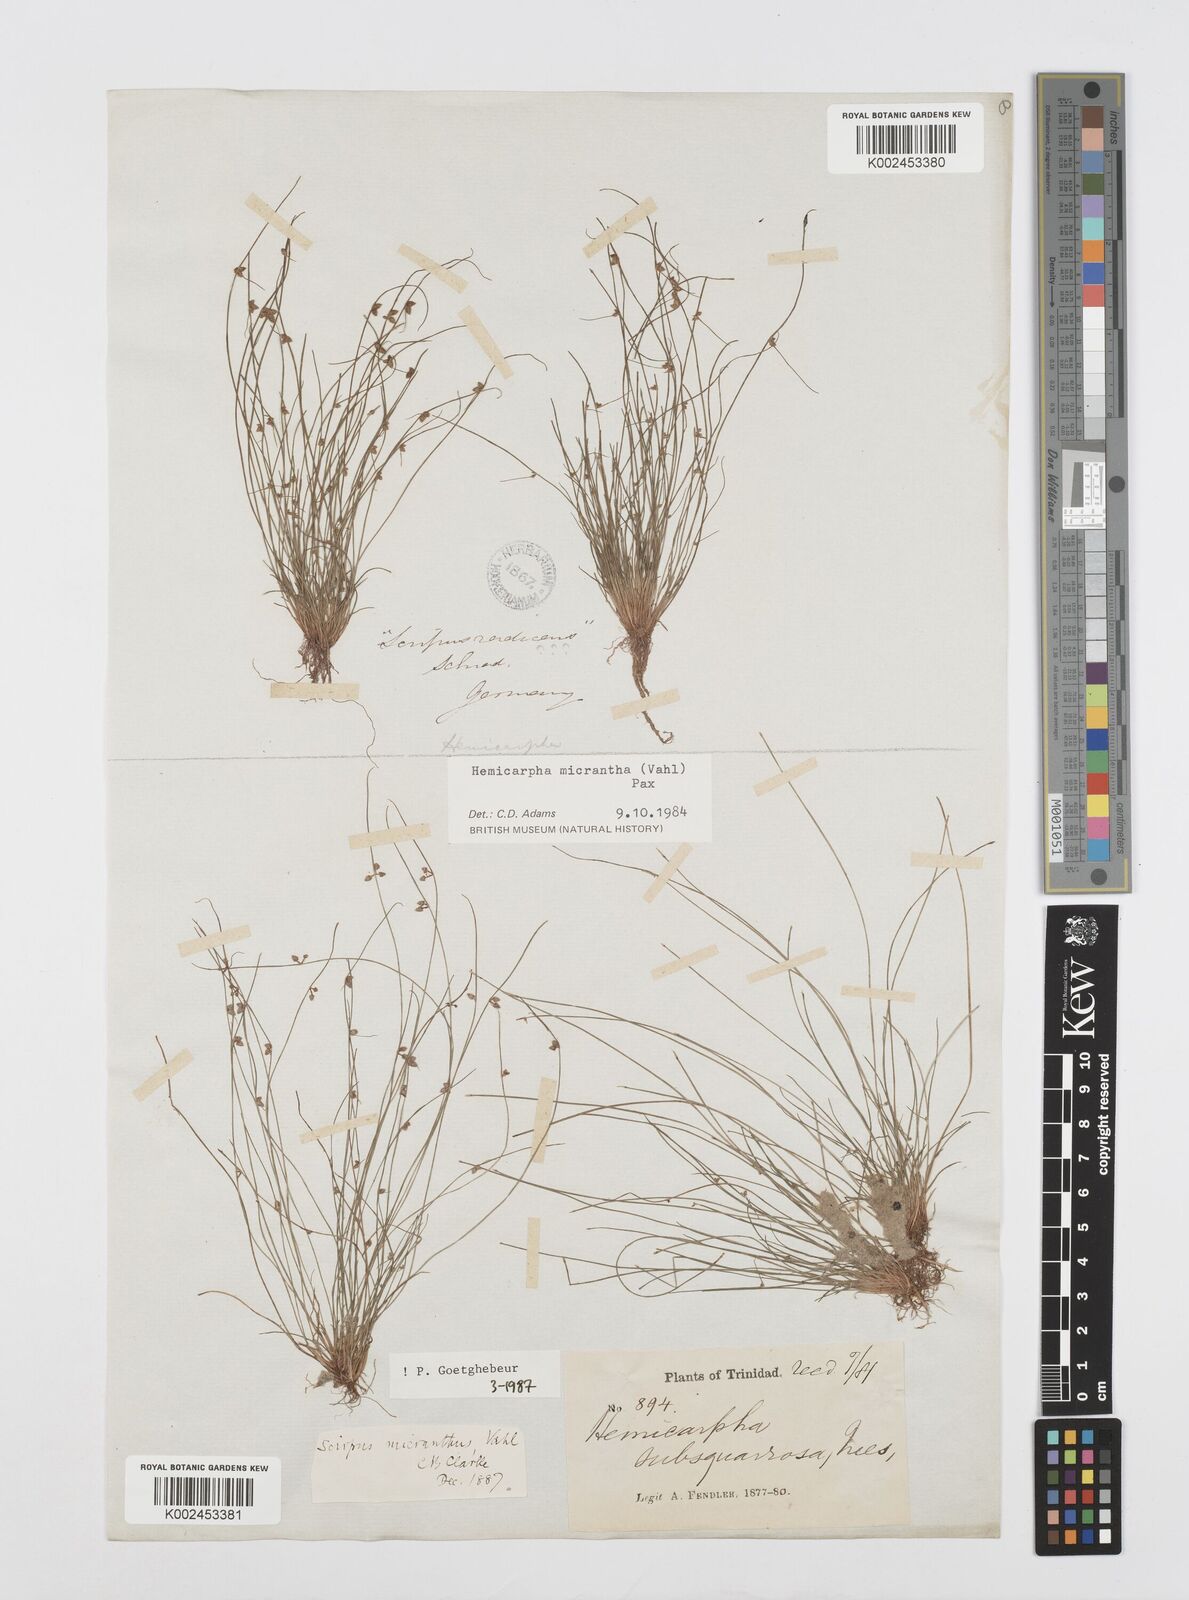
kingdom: Plantae
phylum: Tracheophyta
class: Liliopsida
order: Poales
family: Cyperaceae
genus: Cyperus
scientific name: Cyperus
